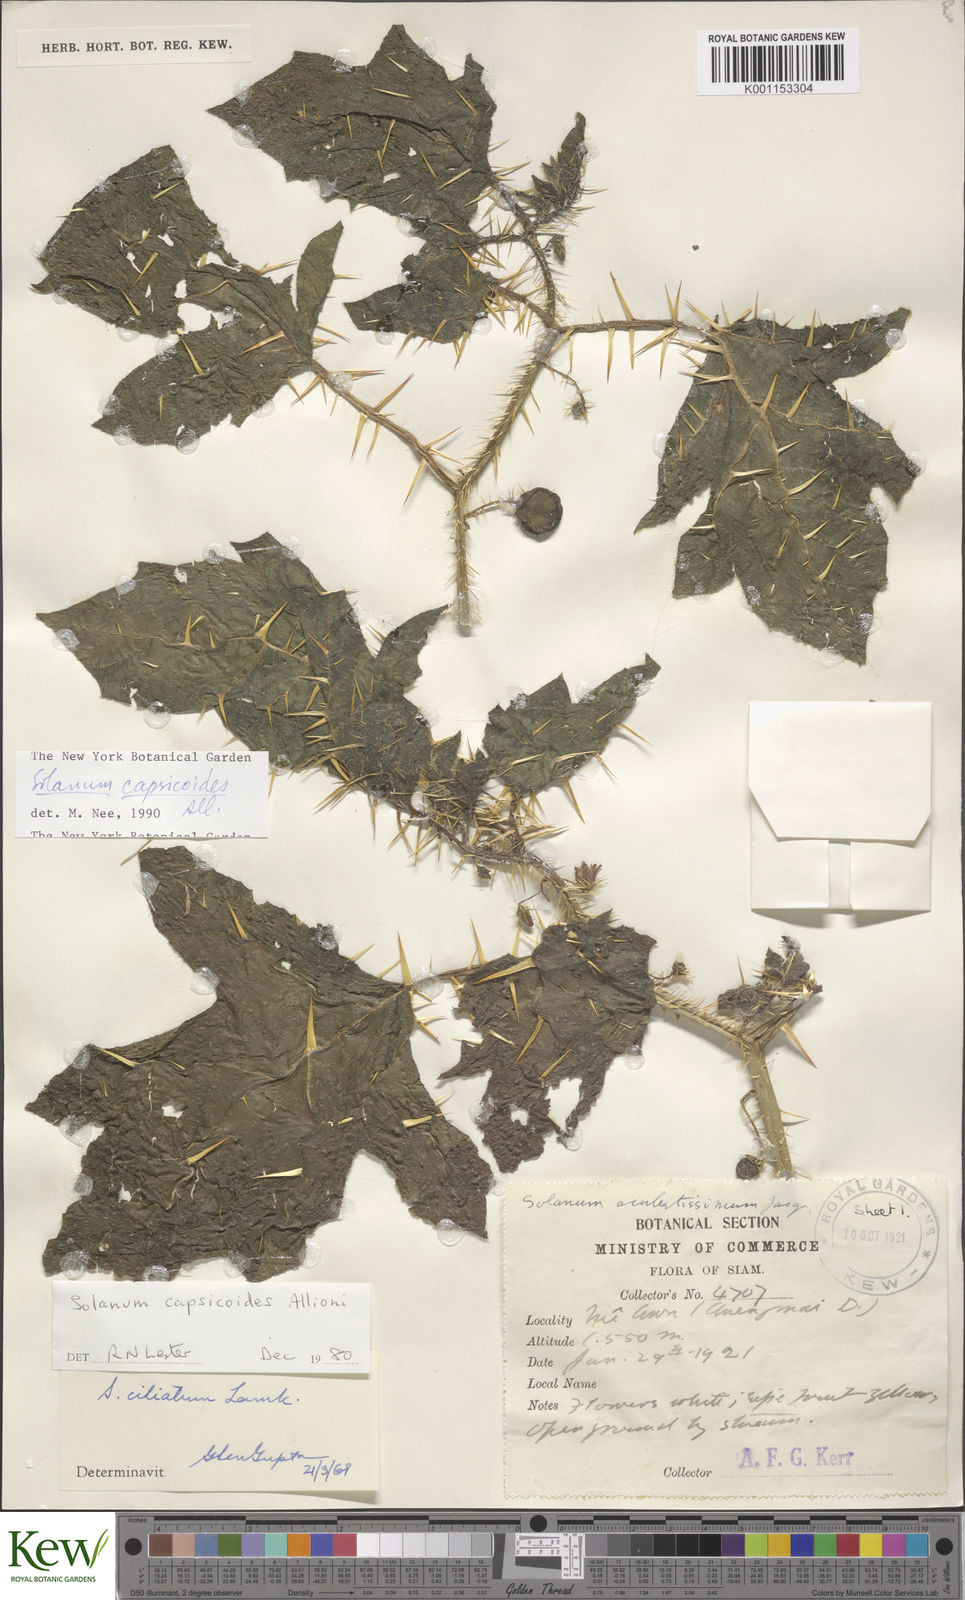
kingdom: Plantae
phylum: Tracheophyta
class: Magnoliopsida
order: Solanales
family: Solanaceae
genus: Solanum
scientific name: Solanum capsicoides
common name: Cockroach berry
